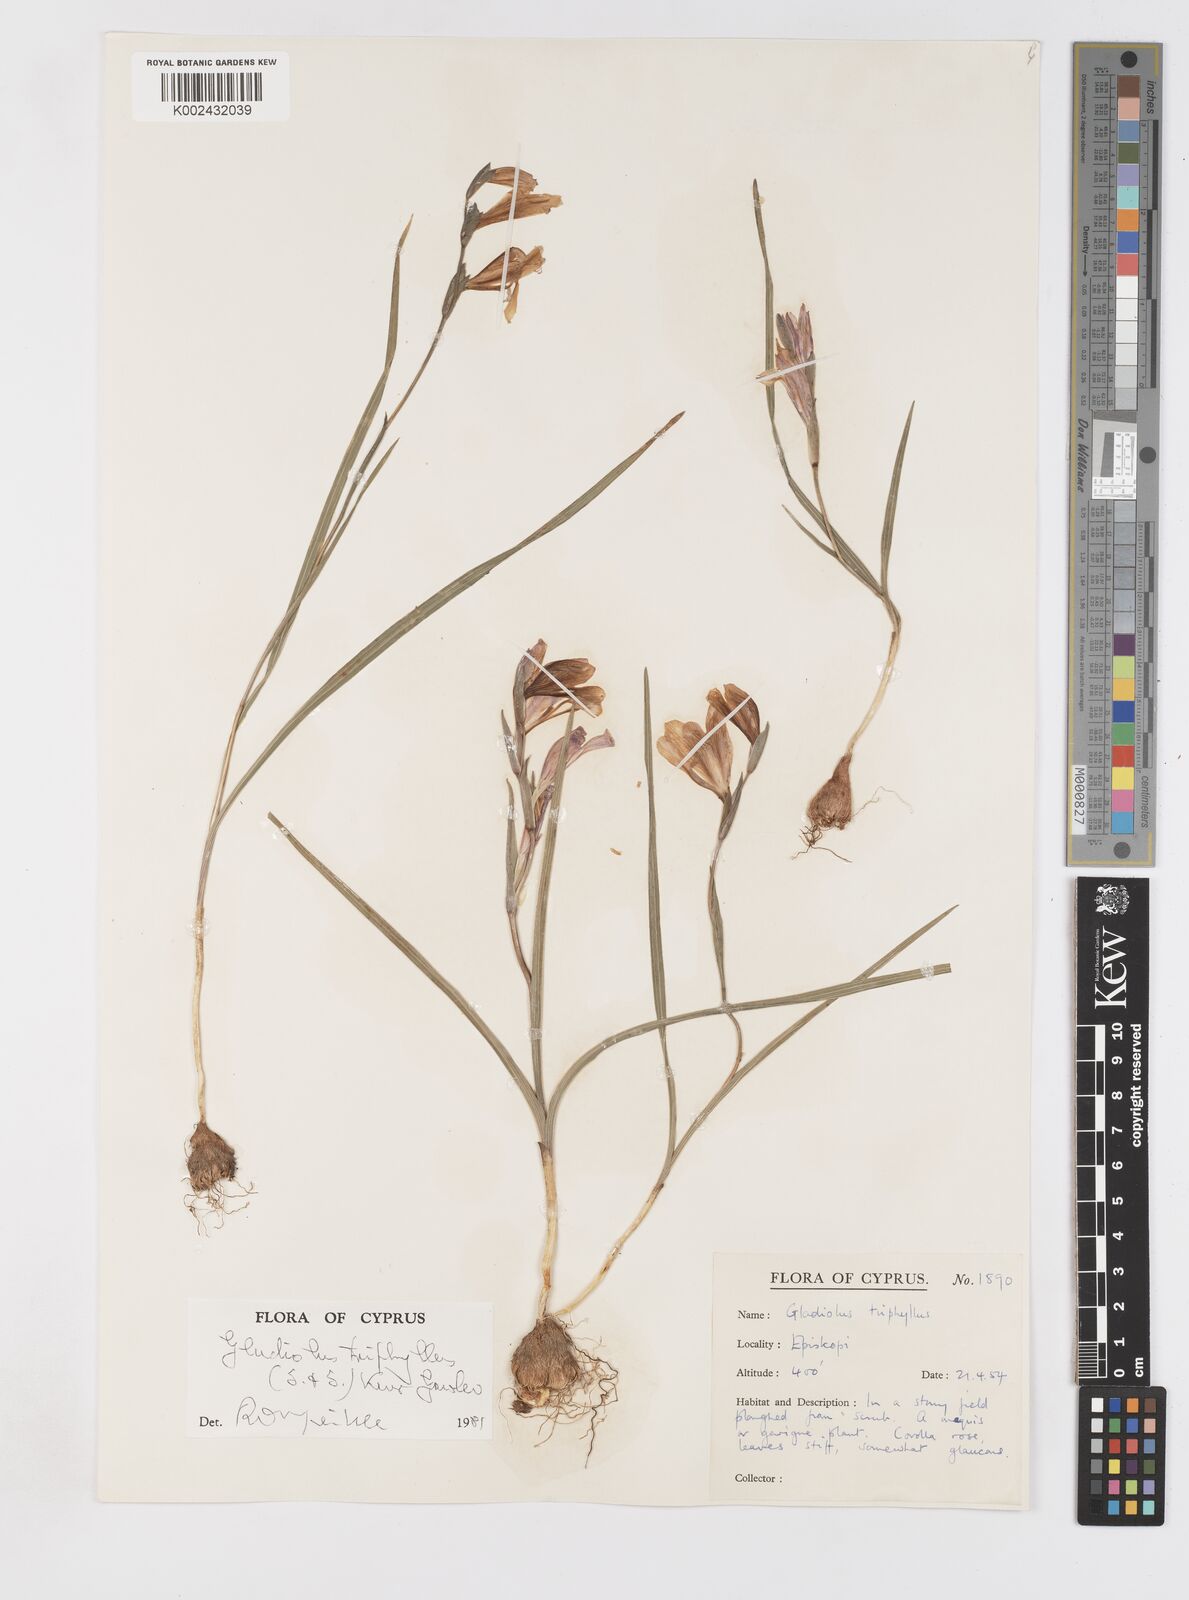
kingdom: Plantae
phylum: Tracheophyta
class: Liliopsida
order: Asparagales
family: Iridaceae
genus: Gladiolus
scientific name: Gladiolus triphyllus
